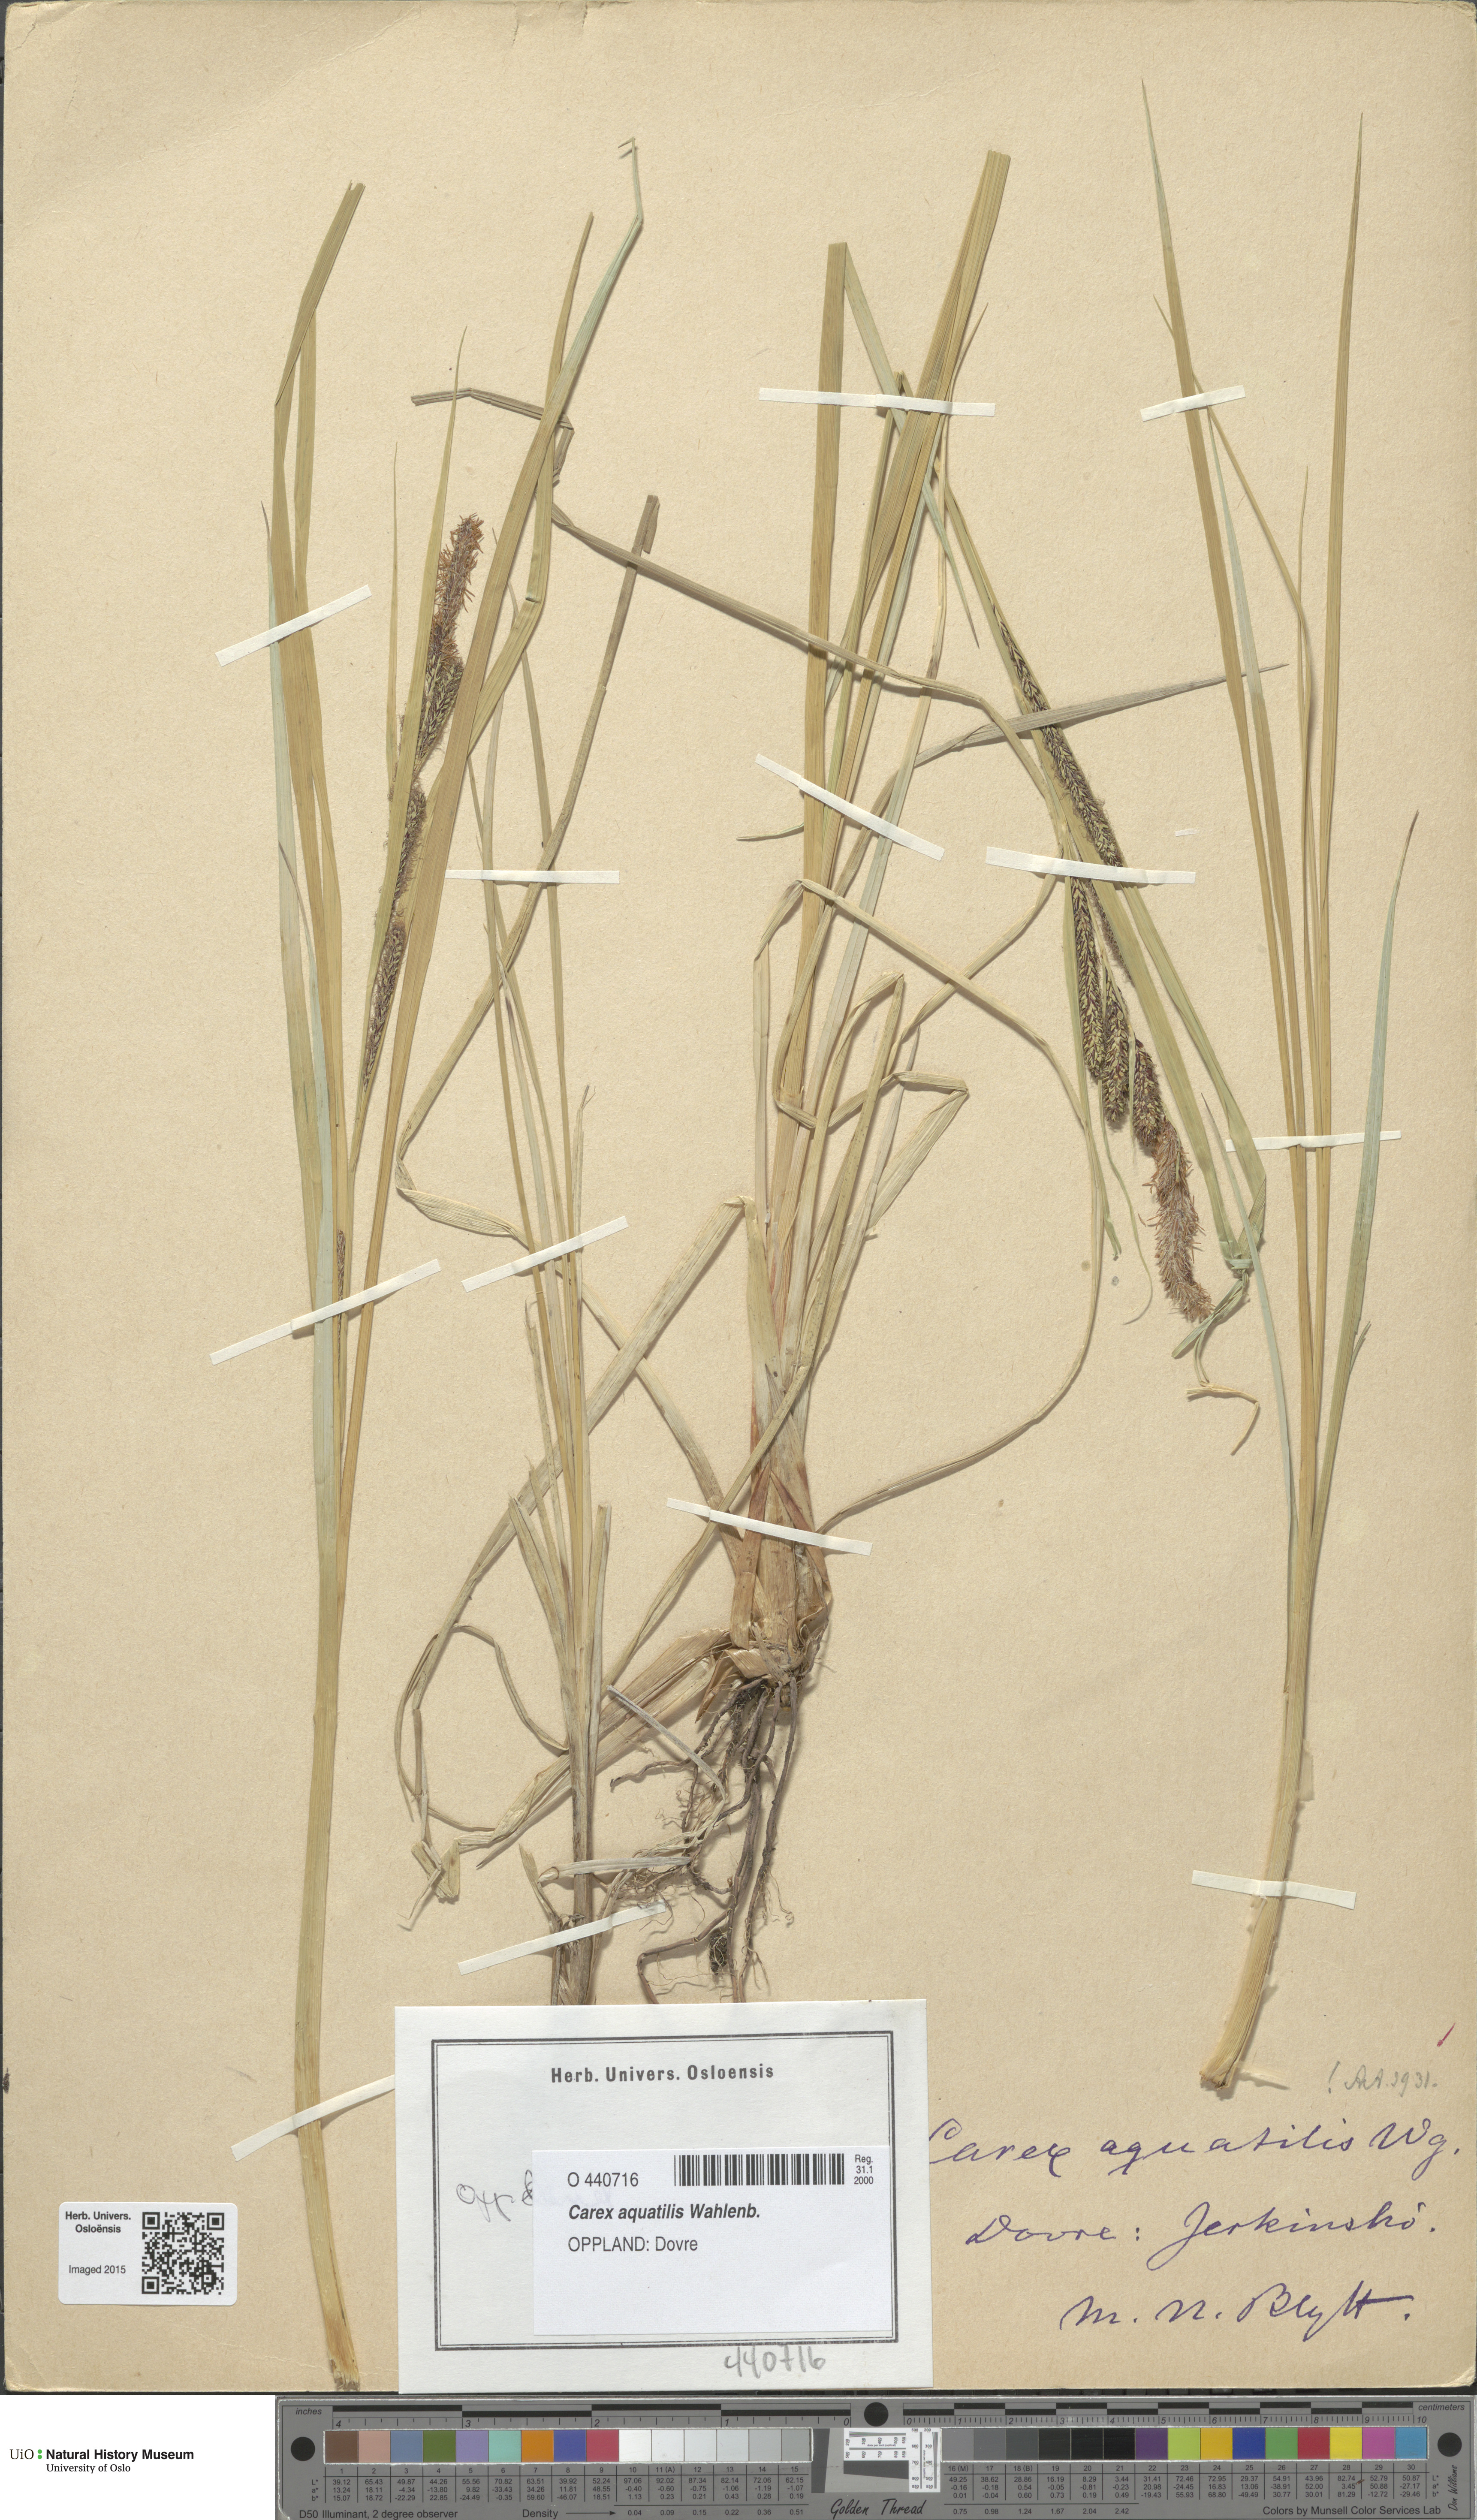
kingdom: Plantae
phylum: Tracheophyta
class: Liliopsida
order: Poales
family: Cyperaceae
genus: Carex
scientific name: Carex aquatilis
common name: Water sedge
